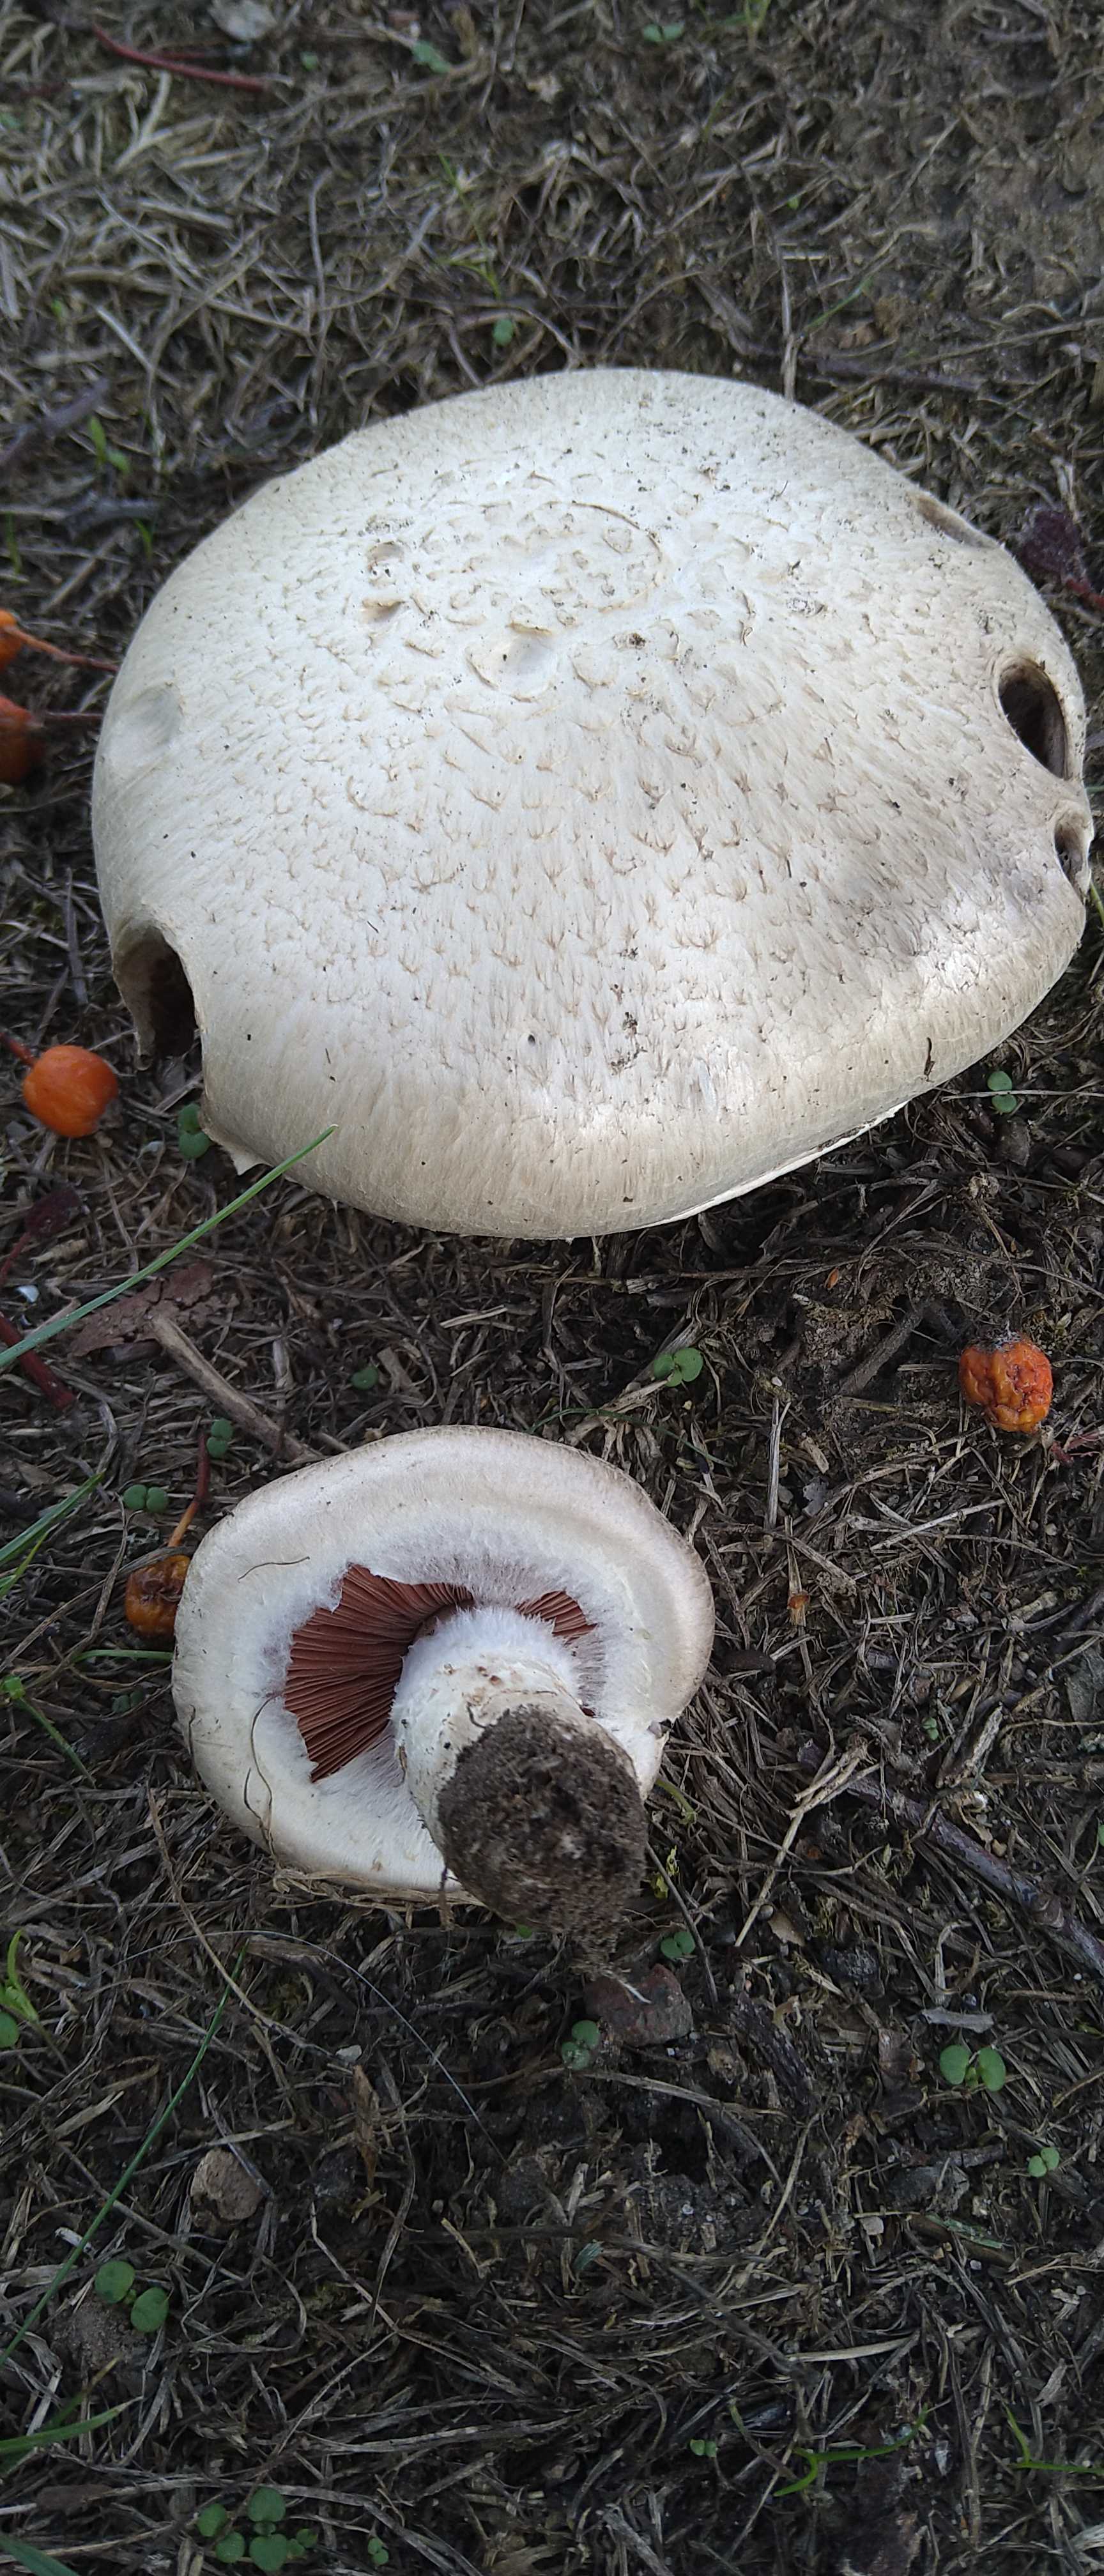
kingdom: Fungi
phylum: Basidiomycota
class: Agaricomycetes
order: Agaricales
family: Agaricaceae
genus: Agaricus
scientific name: Agaricus
